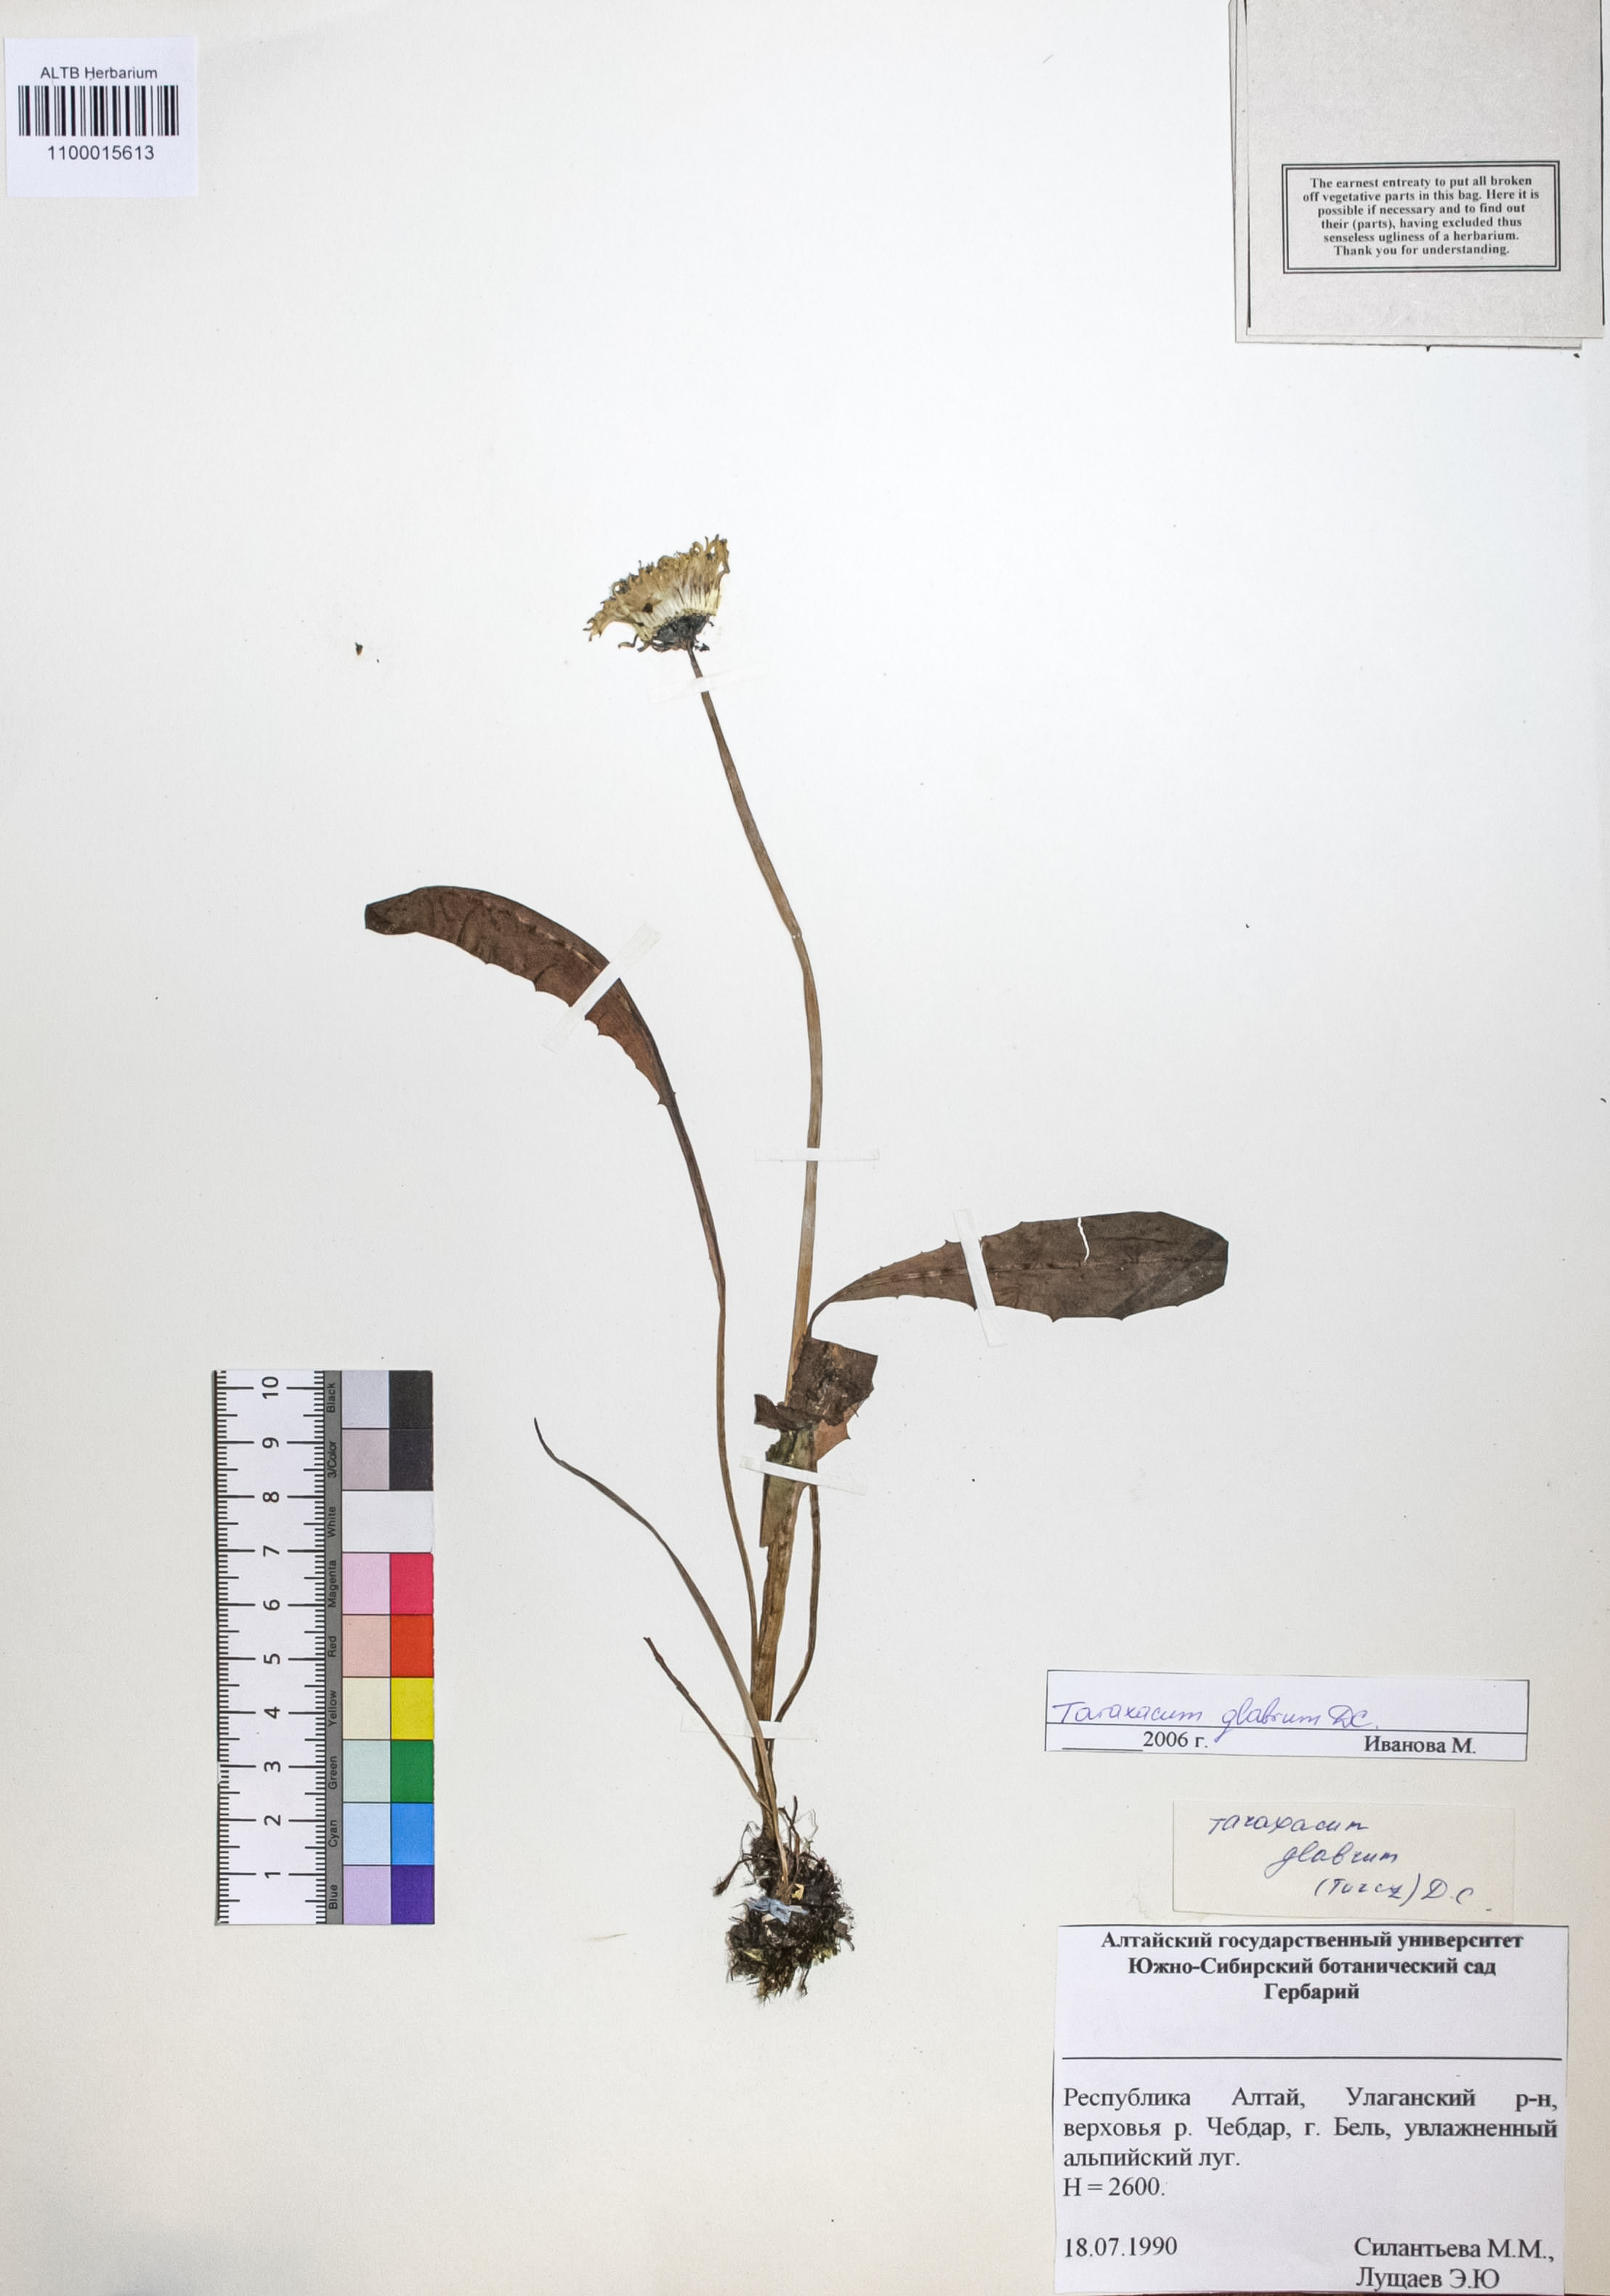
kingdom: Plantae
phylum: Tracheophyta
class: Magnoliopsida
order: Asterales
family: Asteraceae
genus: Taraxacum
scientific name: Taraxacum glabrum
